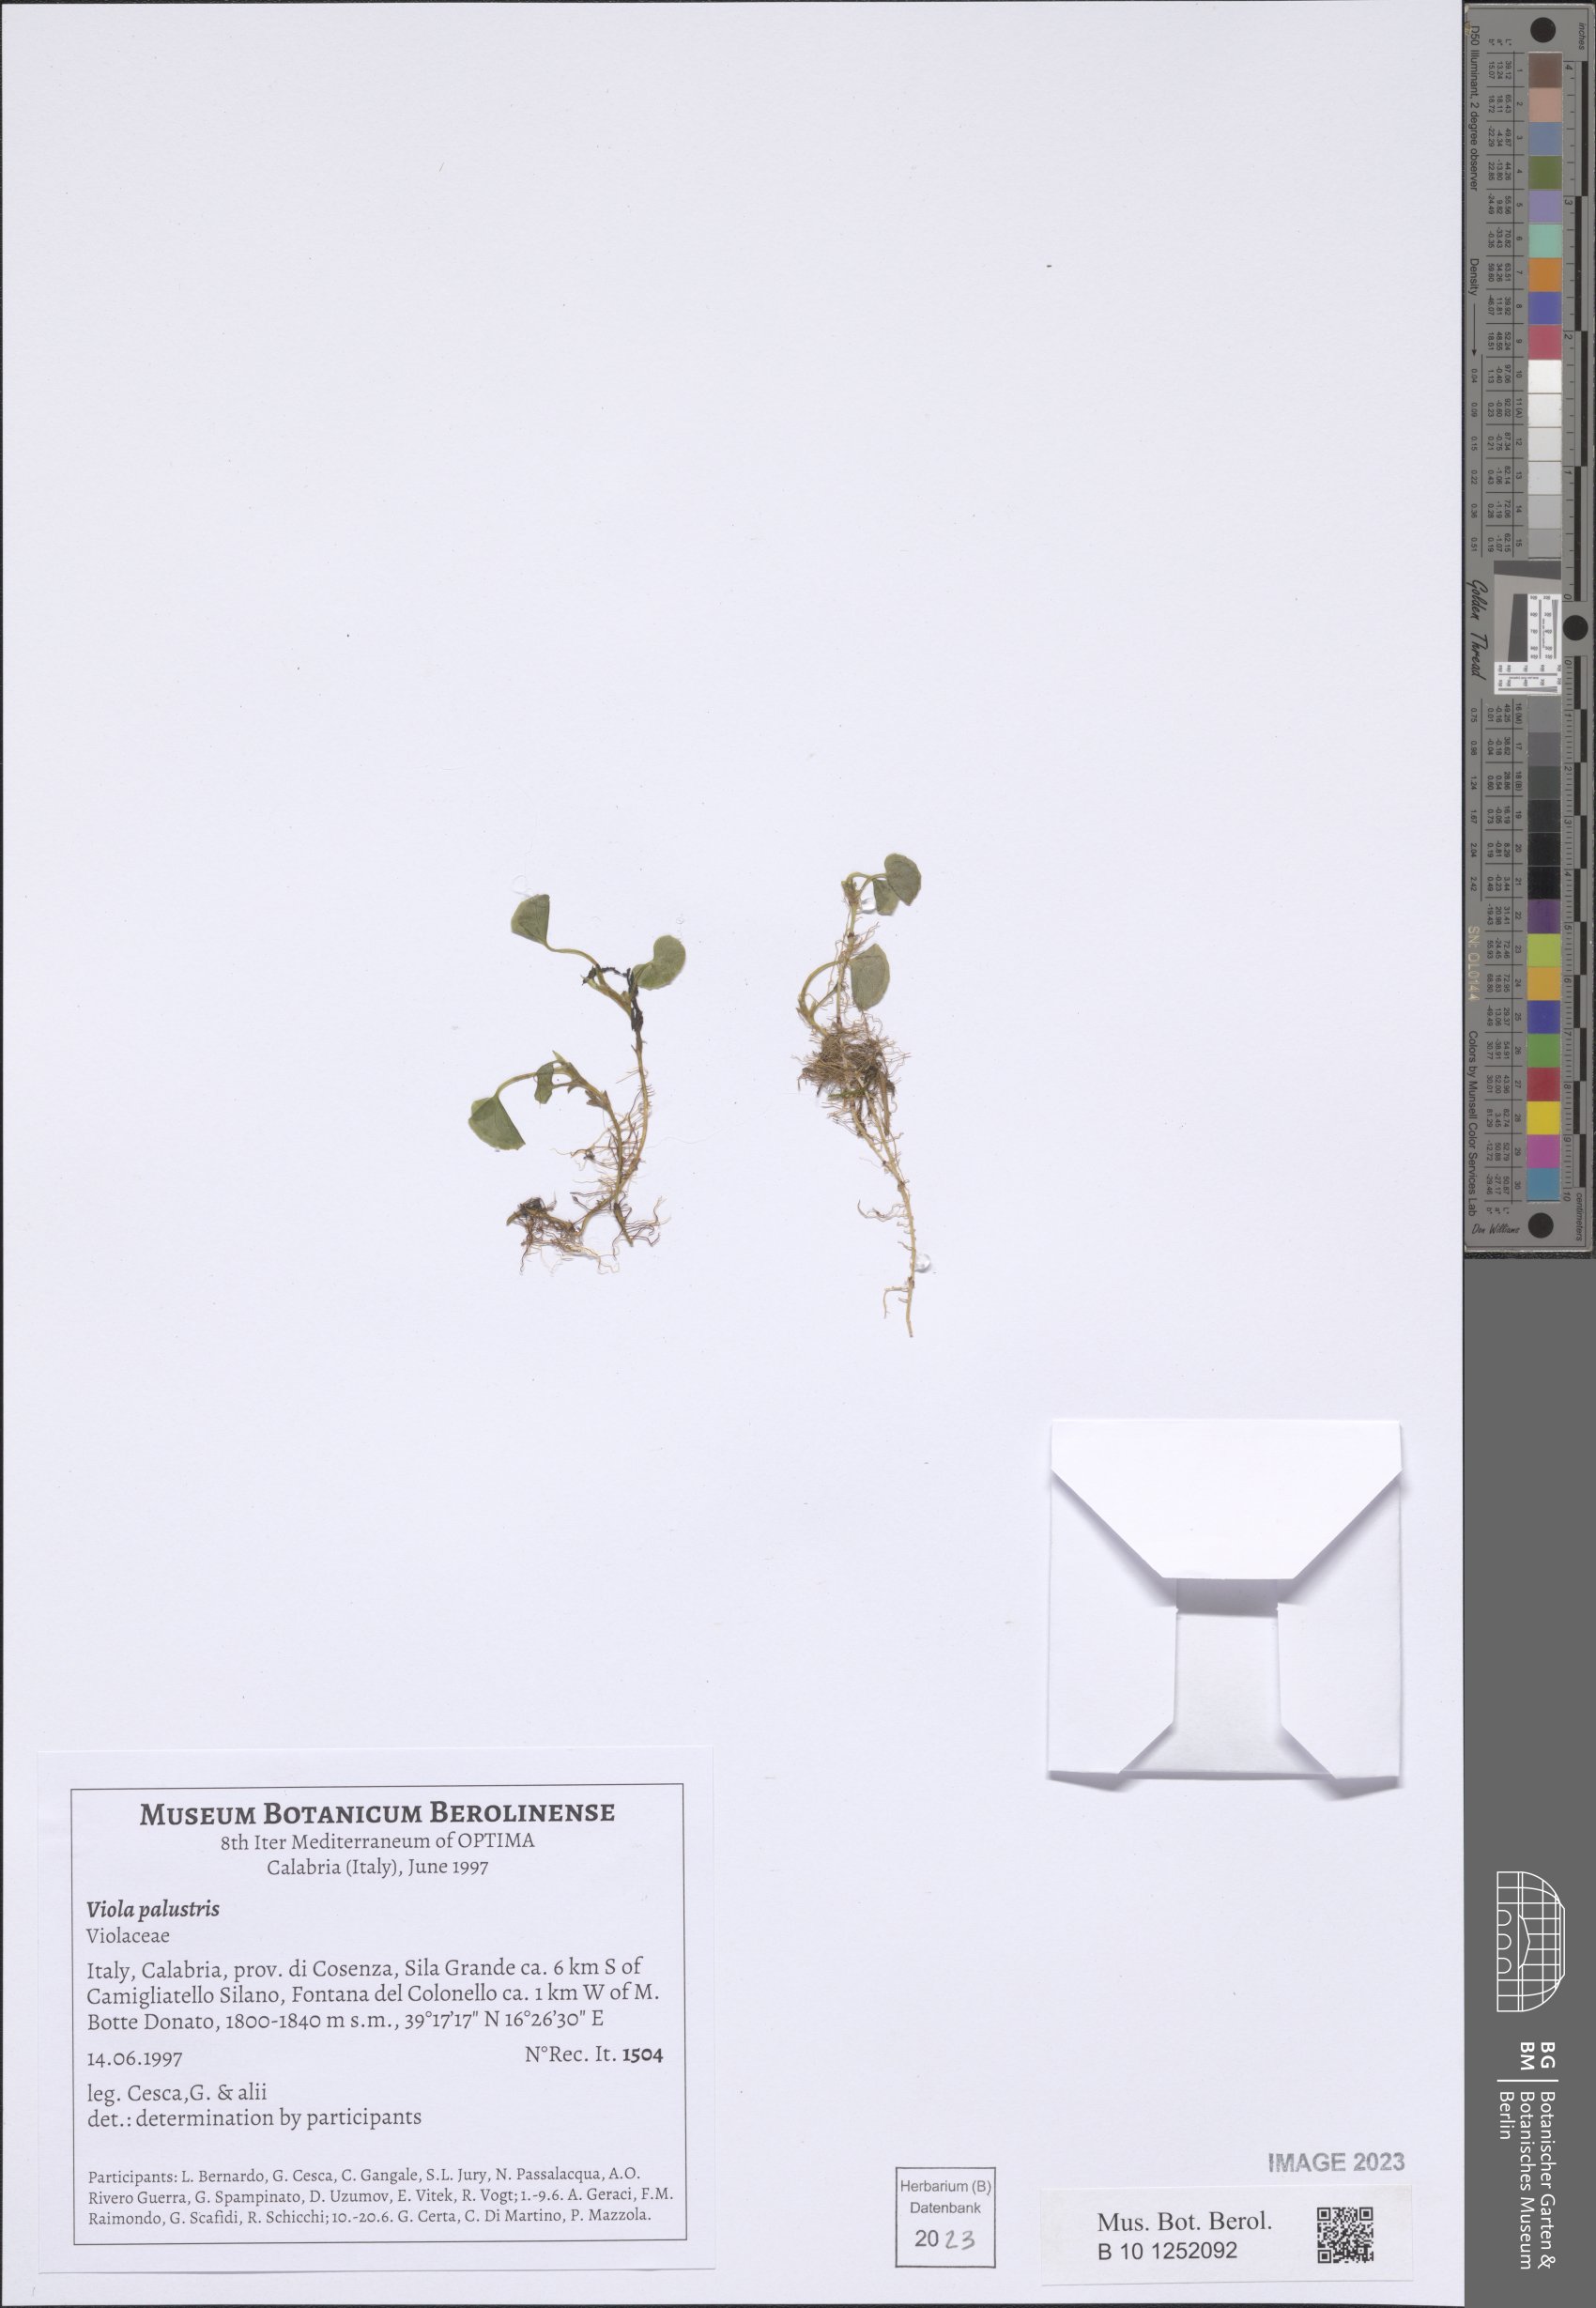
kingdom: Plantae
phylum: Tracheophyta
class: Magnoliopsida
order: Malpighiales
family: Violaceae
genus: Viola
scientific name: Viola palustris
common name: Marsh violet
